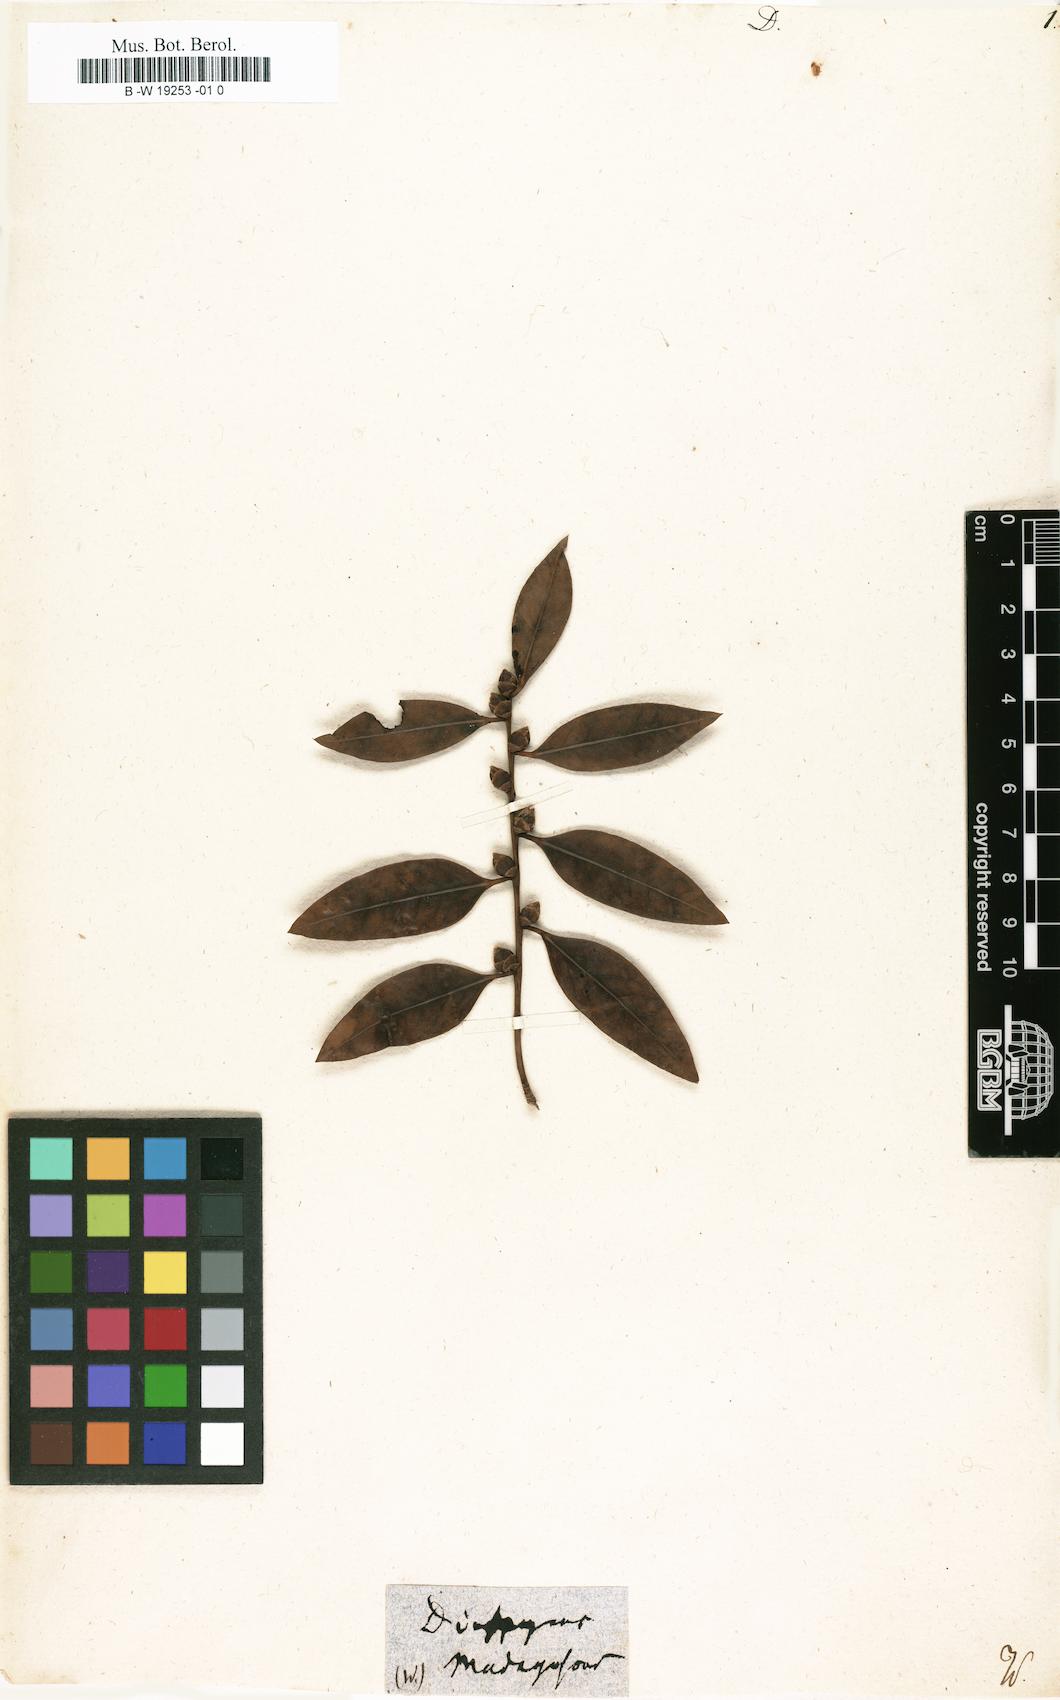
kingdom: Plantae
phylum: Tracheophyta
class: Magnoliopsida
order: Ericales
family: Ebenaceae
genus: Diospyros
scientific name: Diospyros
